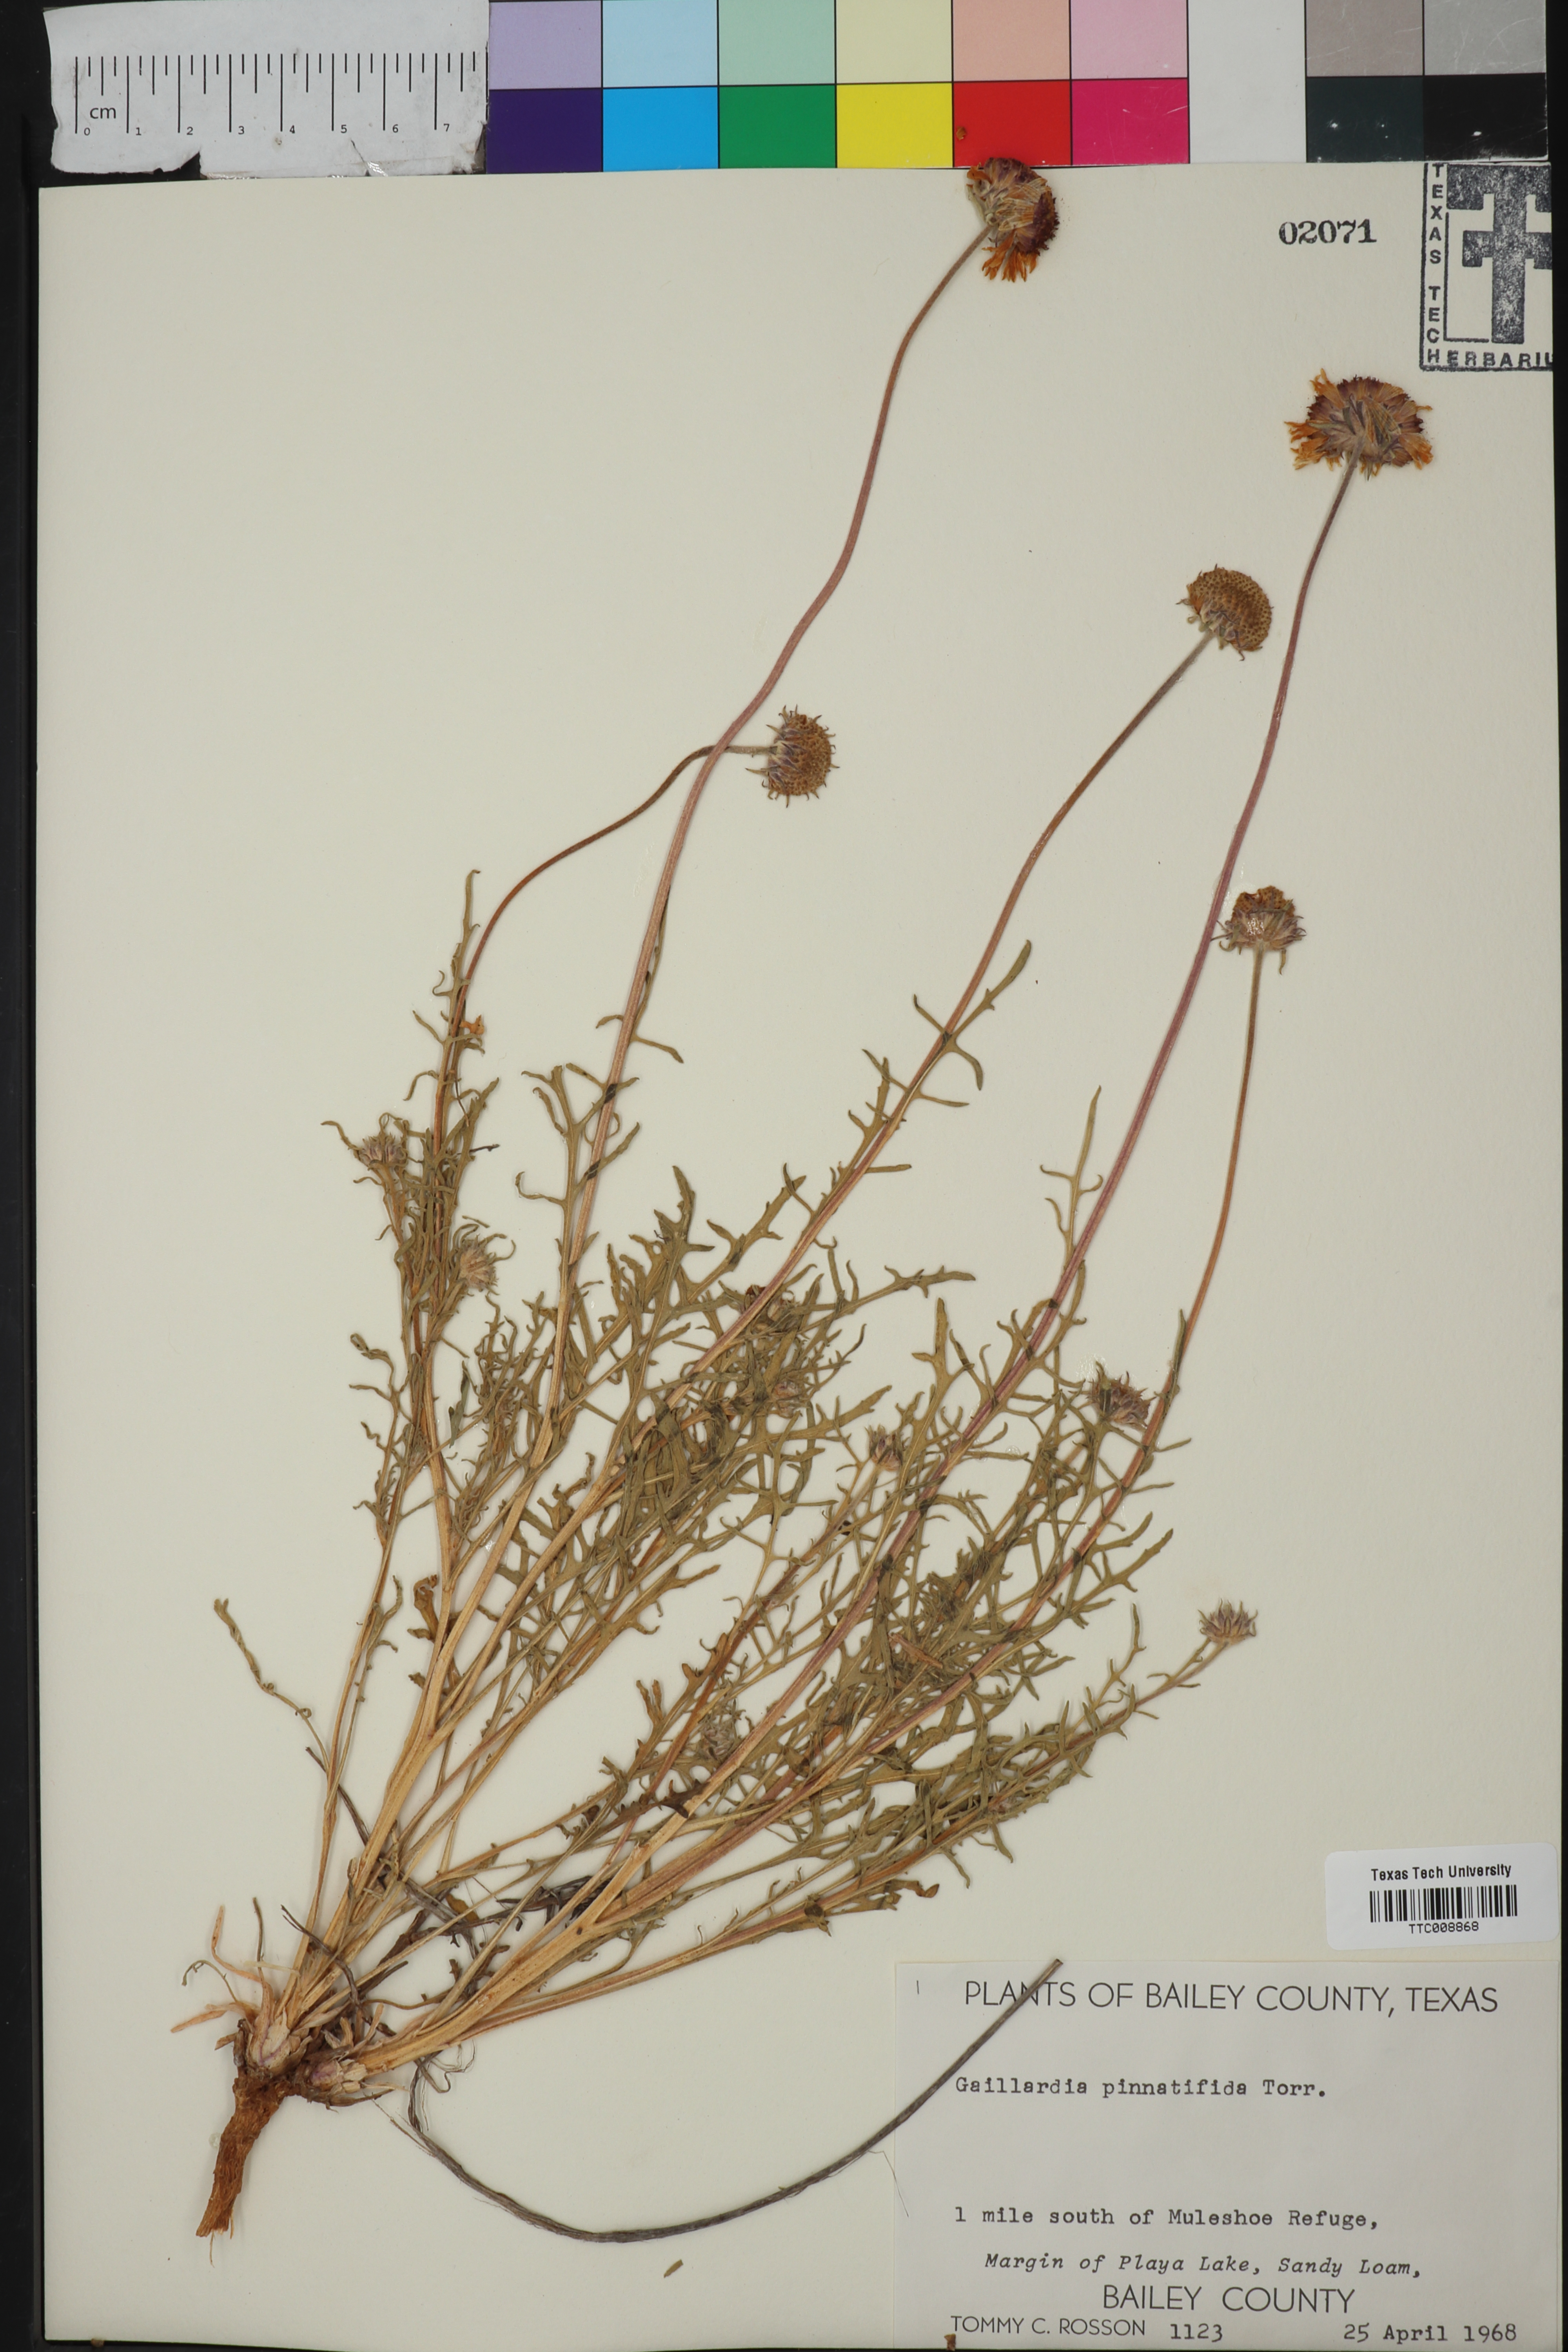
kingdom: Plantae
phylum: Tracheophyta
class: Magnoliopsida
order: Asterales
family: Asteraceae
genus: Gaillardia
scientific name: Gaillardia pinnatifida
